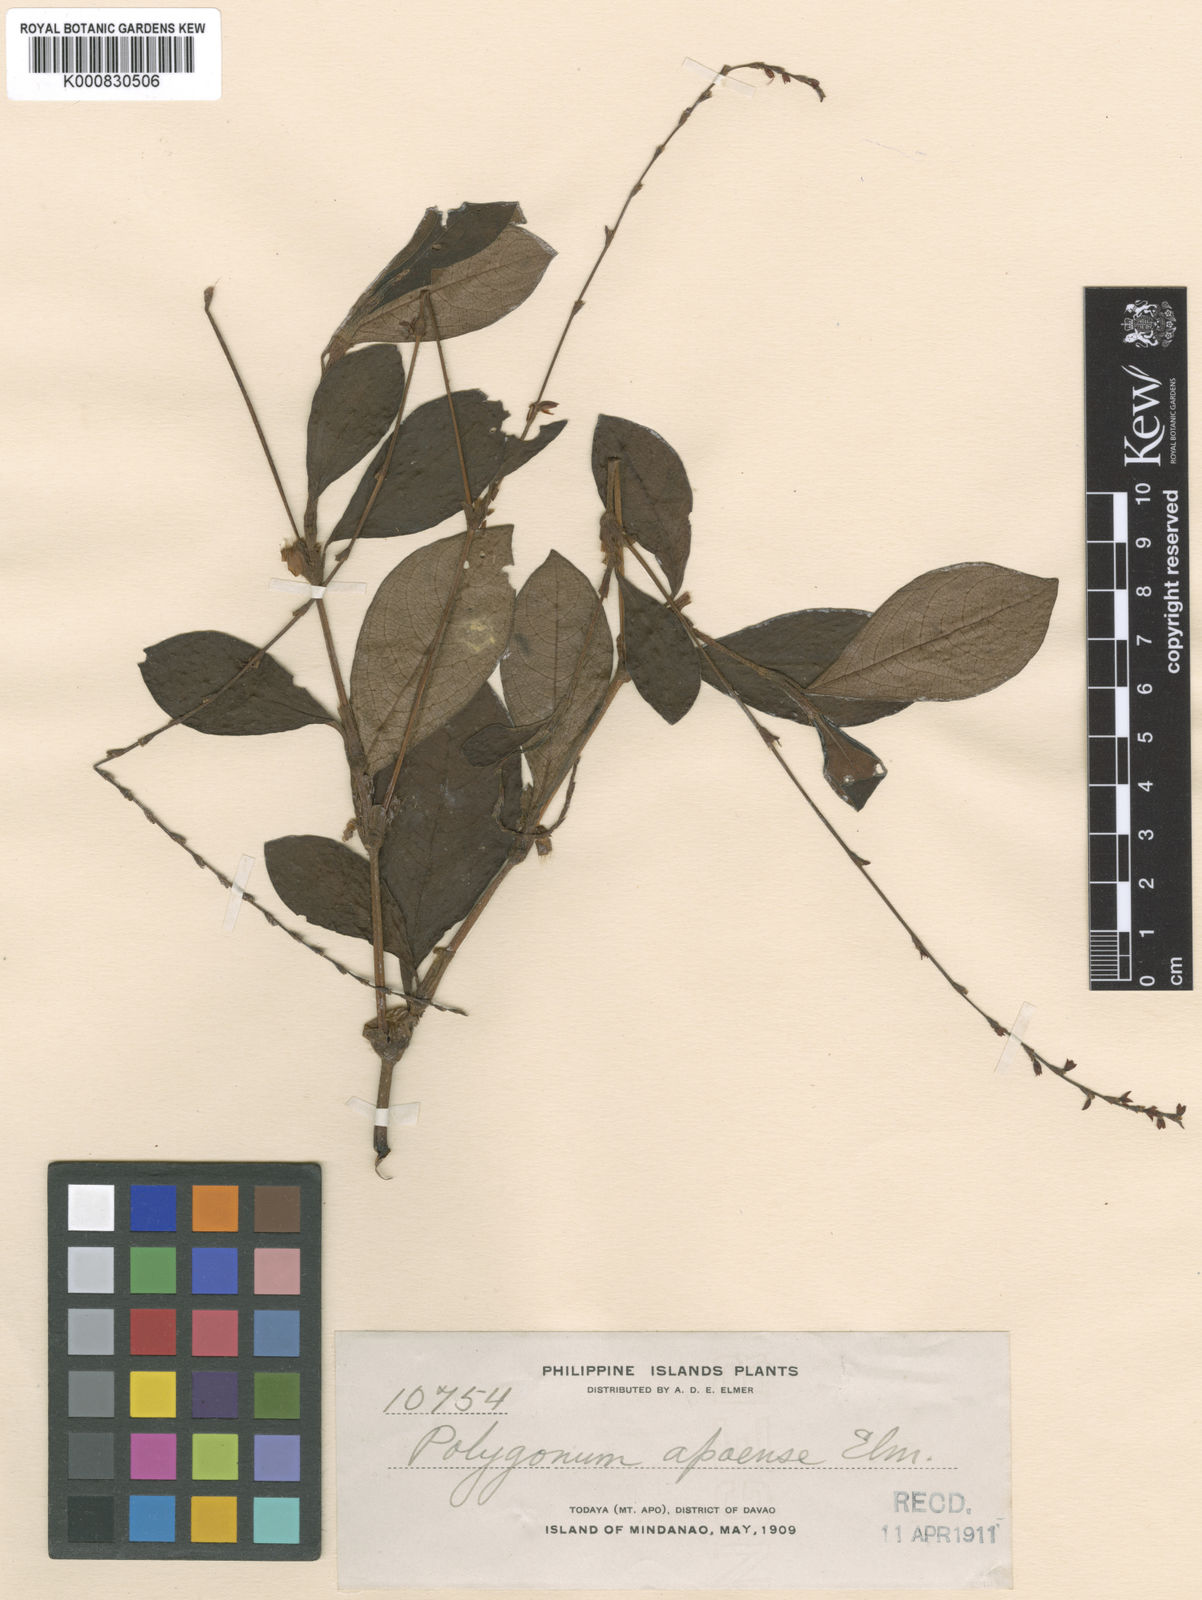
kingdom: Plantae
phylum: Tracheophyta
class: Magnoliopsida
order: Caryophyllales
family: Polygonaceae
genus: Persicaria
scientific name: Persicaria filiformis
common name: Asian jumpseed
